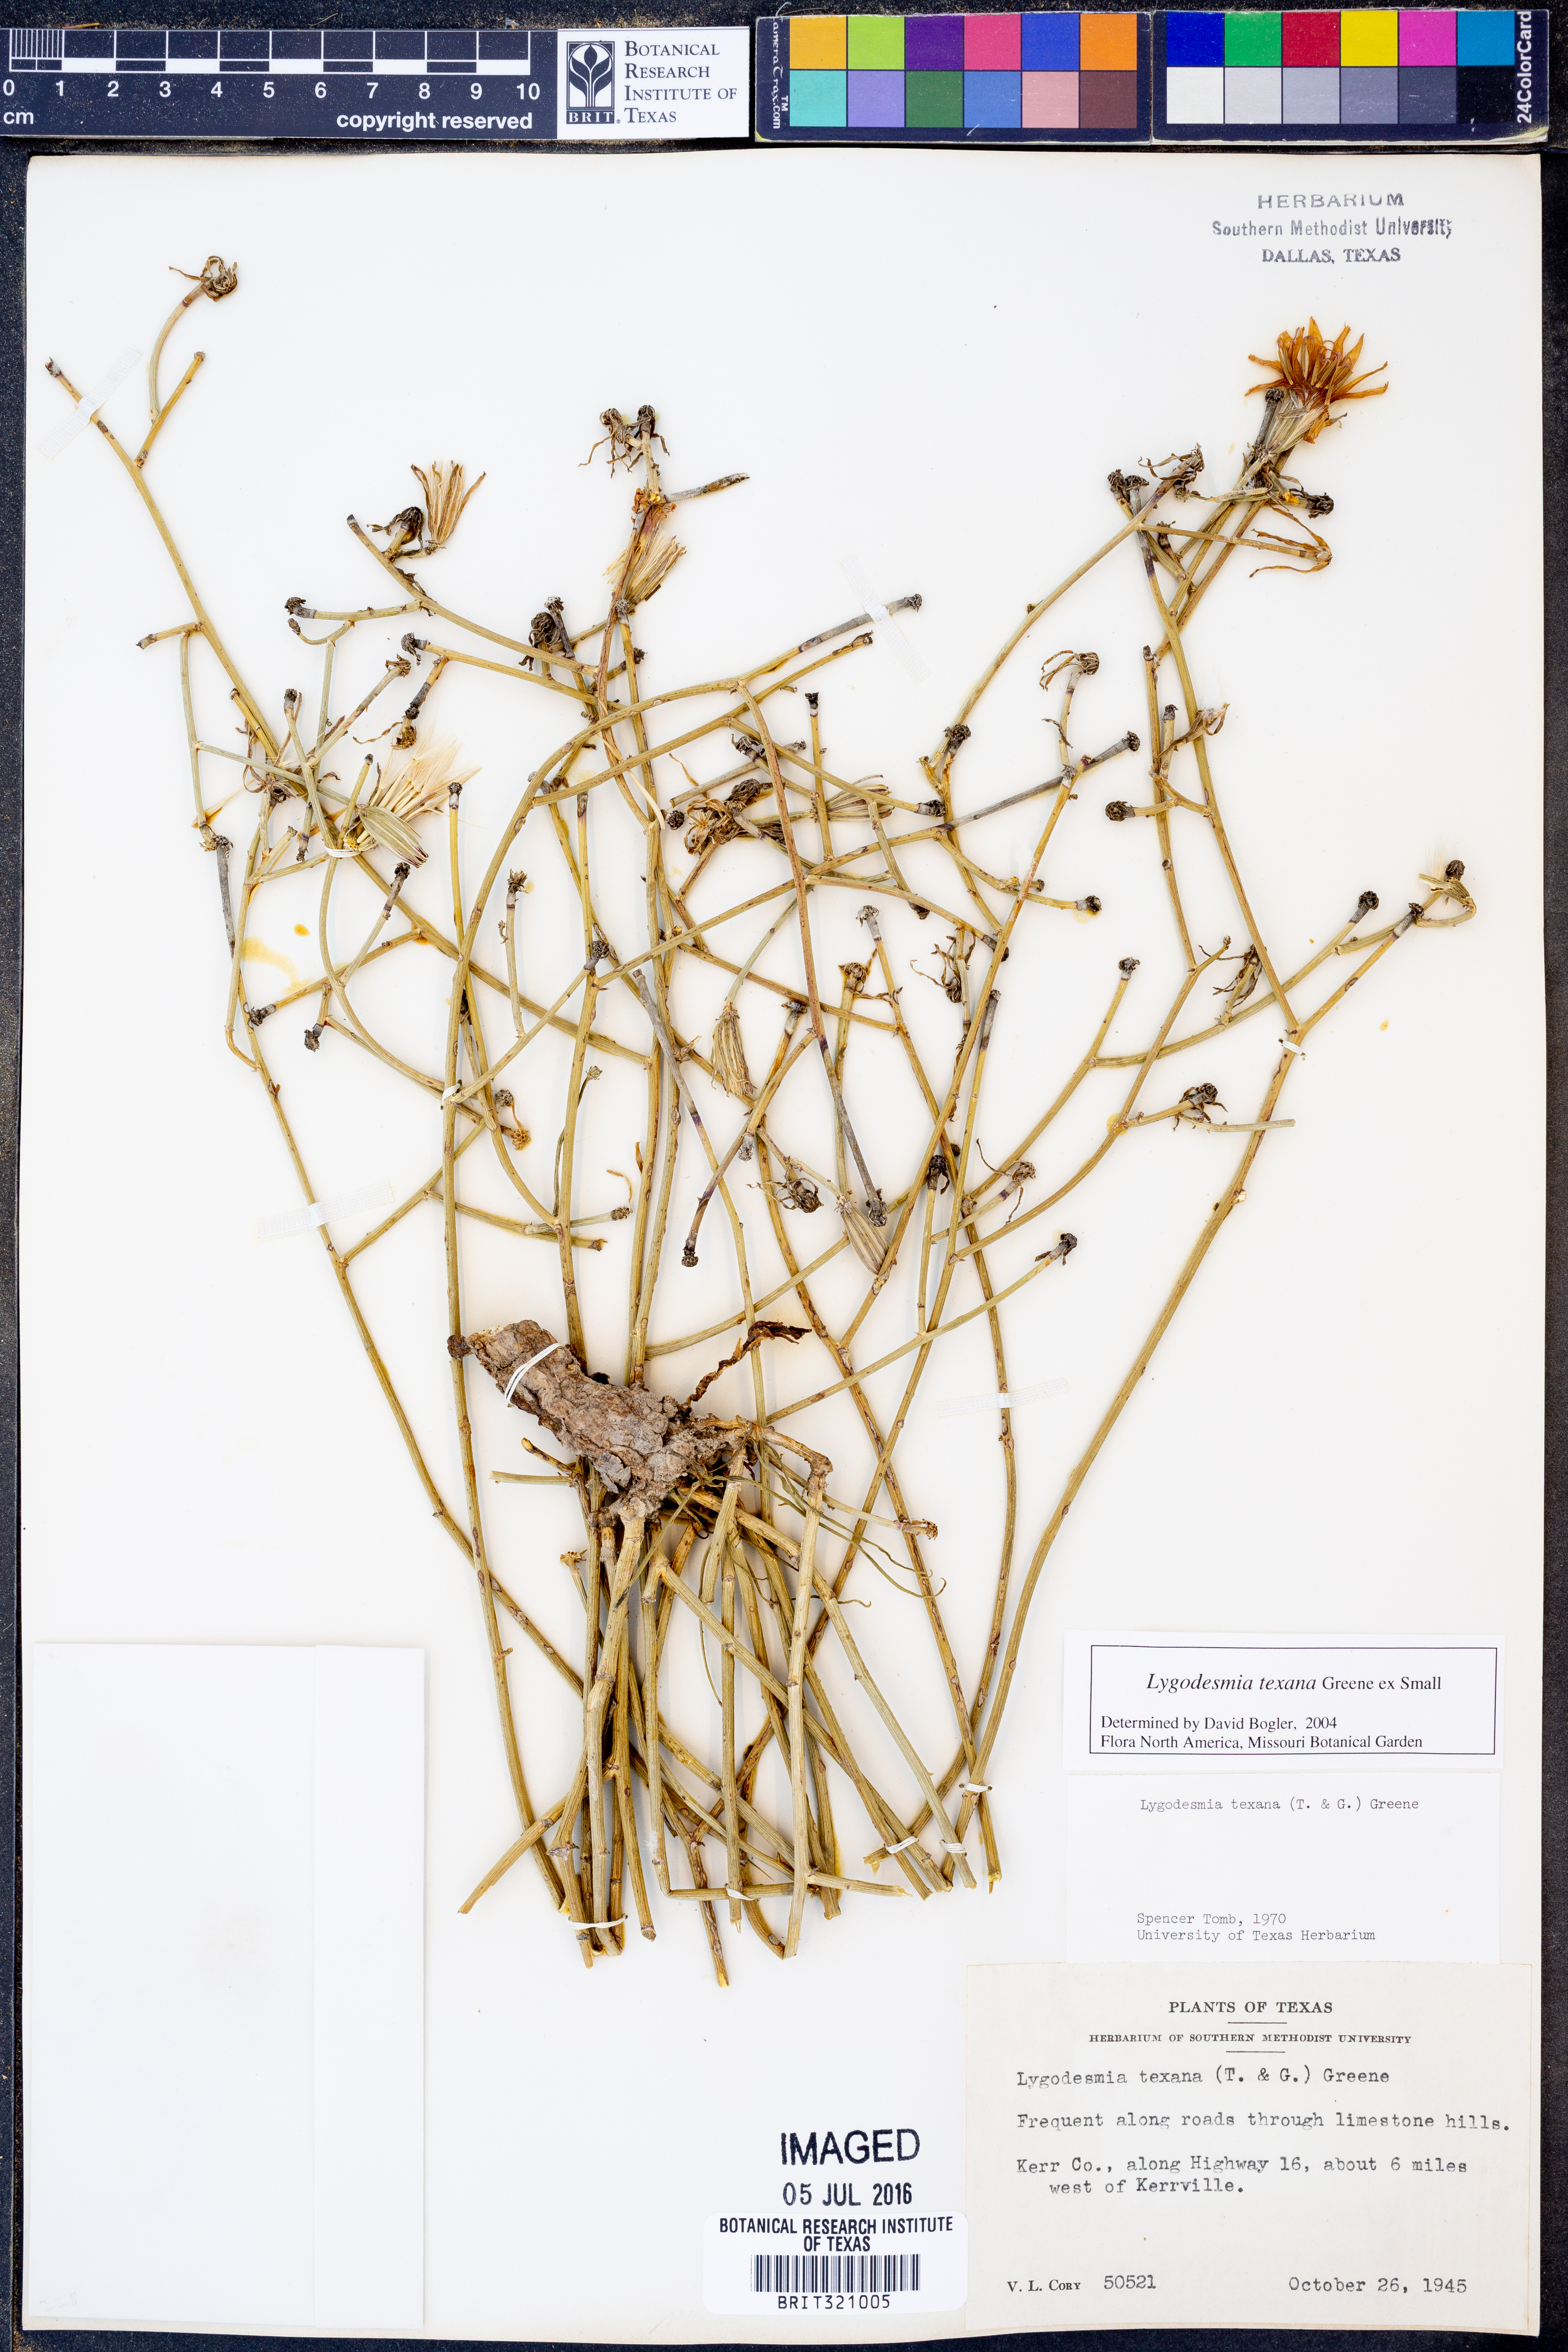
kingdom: Plantae
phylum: Tracheophyta
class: Magnoliopsida
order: Asterales
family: Asteraceae
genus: Lygodesmia
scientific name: Lygodesmia texana
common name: Texas skeleton-plant
